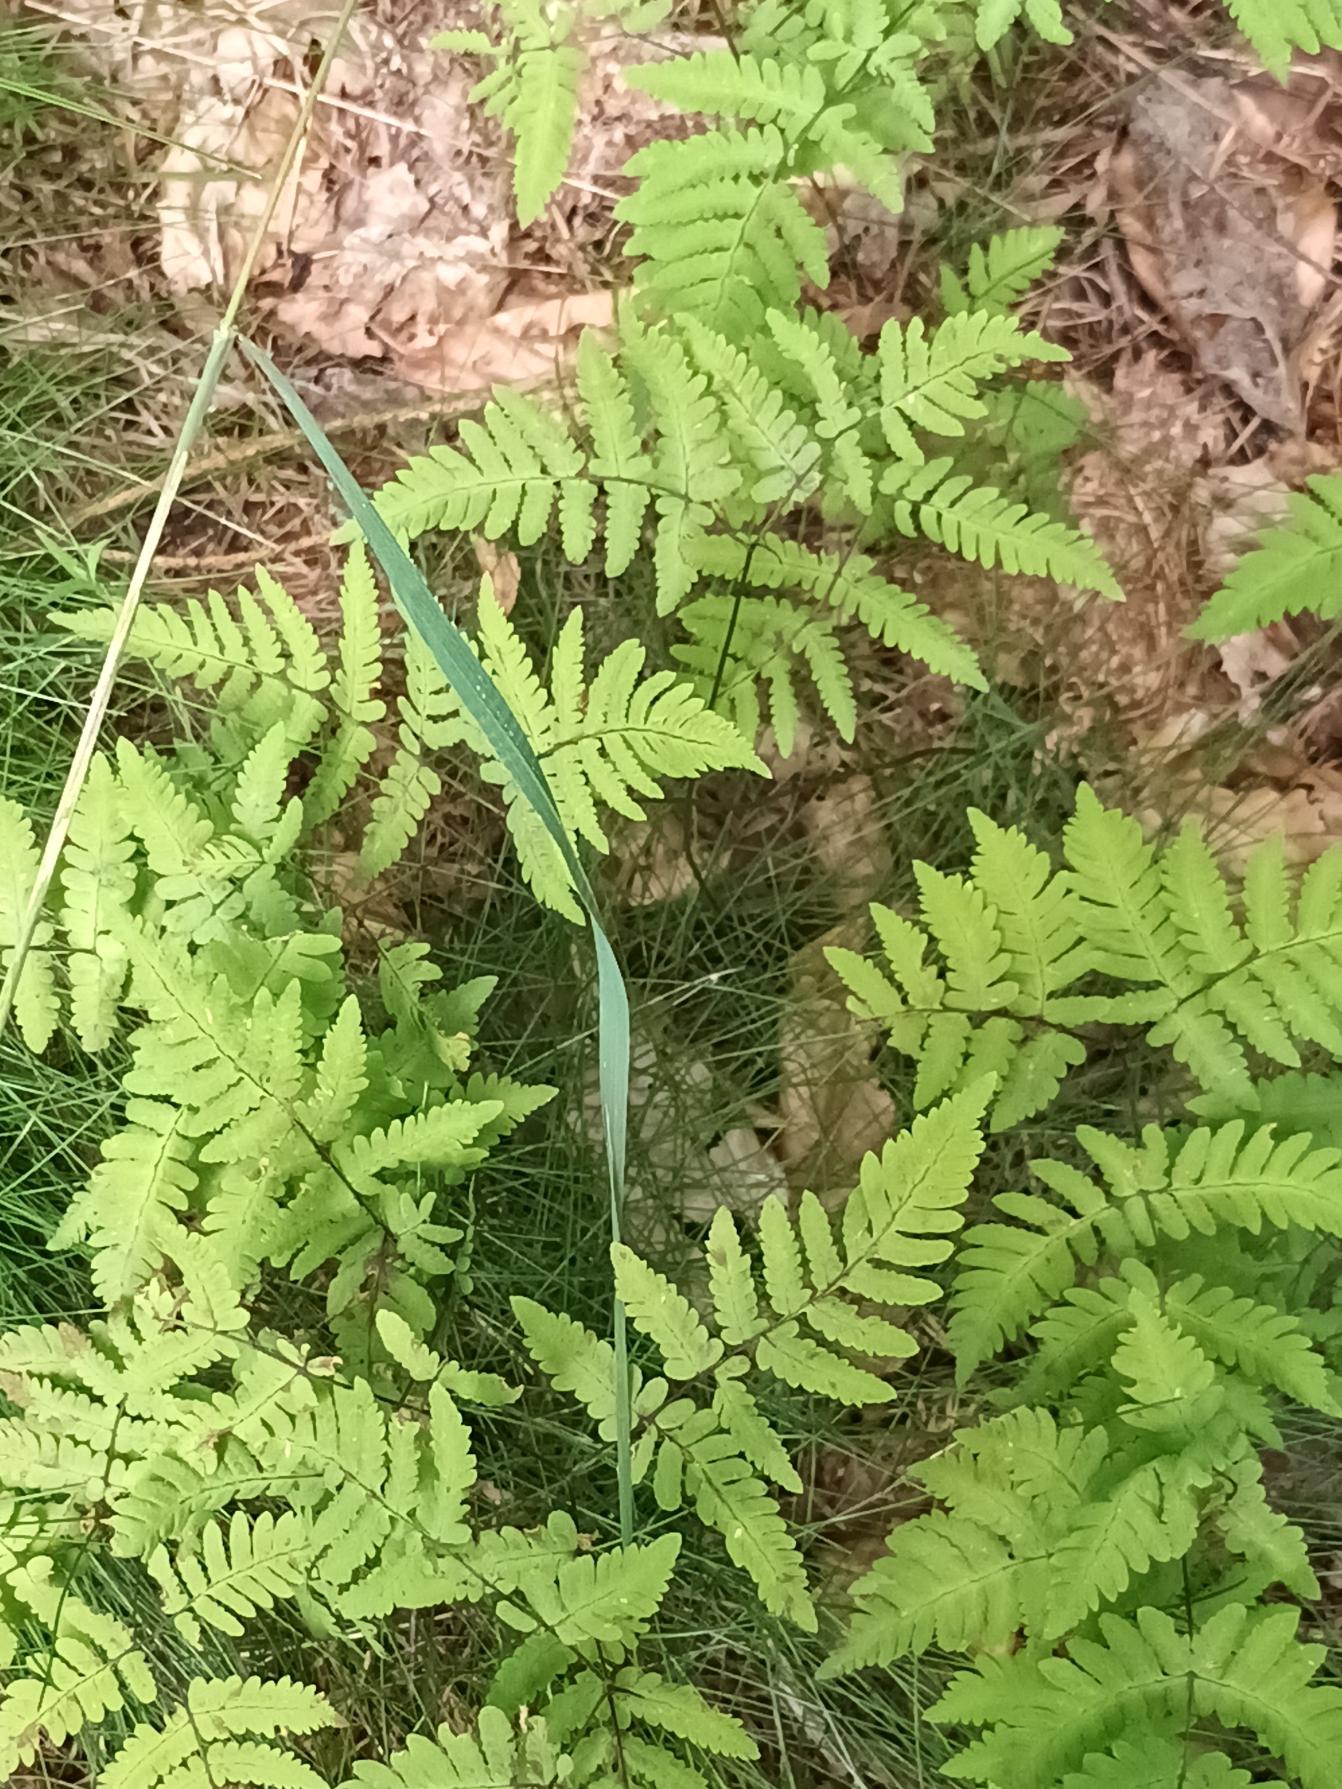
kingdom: Plantae
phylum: Tracheophyta
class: Polypodiopsida
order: Polypodiales
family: Cystopteridaceae
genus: Gymnocarpium
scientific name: Gymnocarpium dryopteris
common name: Tredelt egebregne
